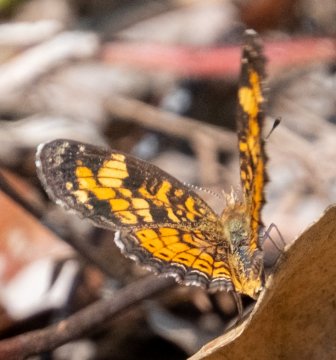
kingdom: Animalia
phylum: Arthropoda
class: Insecta
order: Lepidoptera
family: Nymphalidae
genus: Phyciodes
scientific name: Phyciodes tharos
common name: Pearl Crescent
